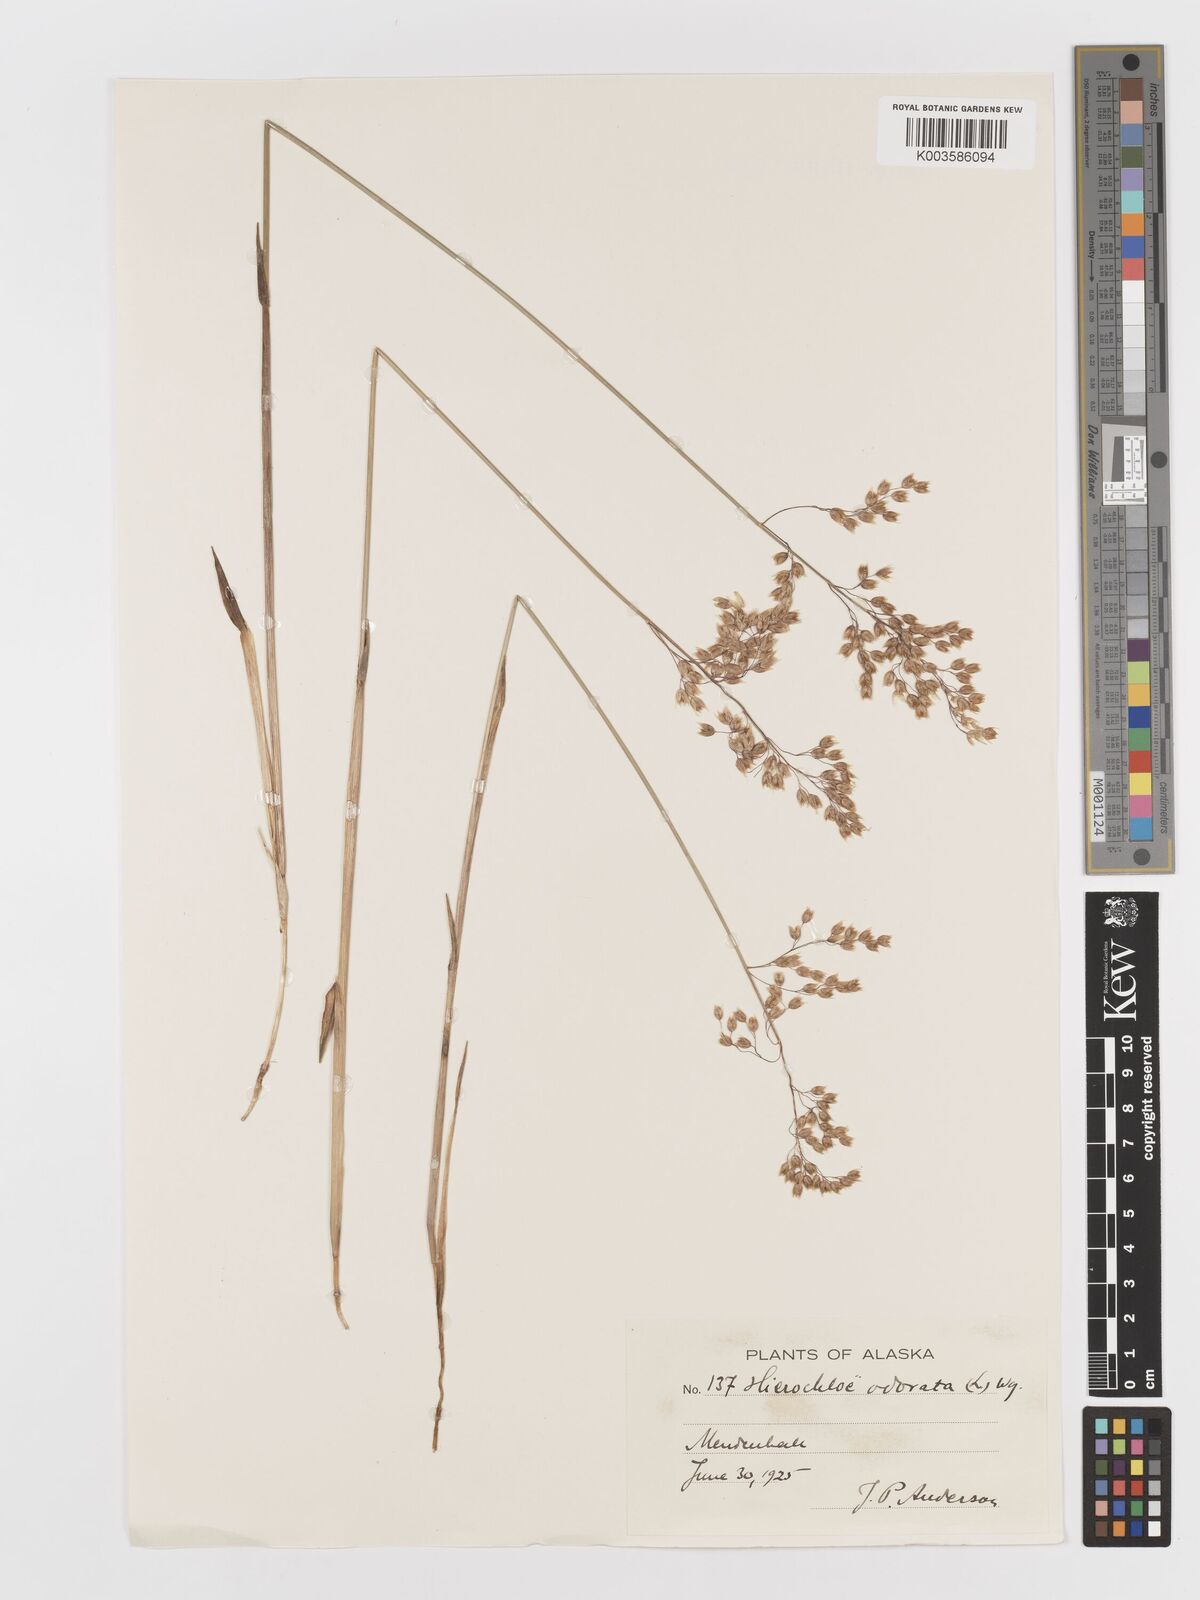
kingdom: Plantae
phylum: Tracheophyta
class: Liliopsida
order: Poales
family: Poaceae
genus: Anthoxanthum
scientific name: Anthoxanthum nitens
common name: Holy grass
